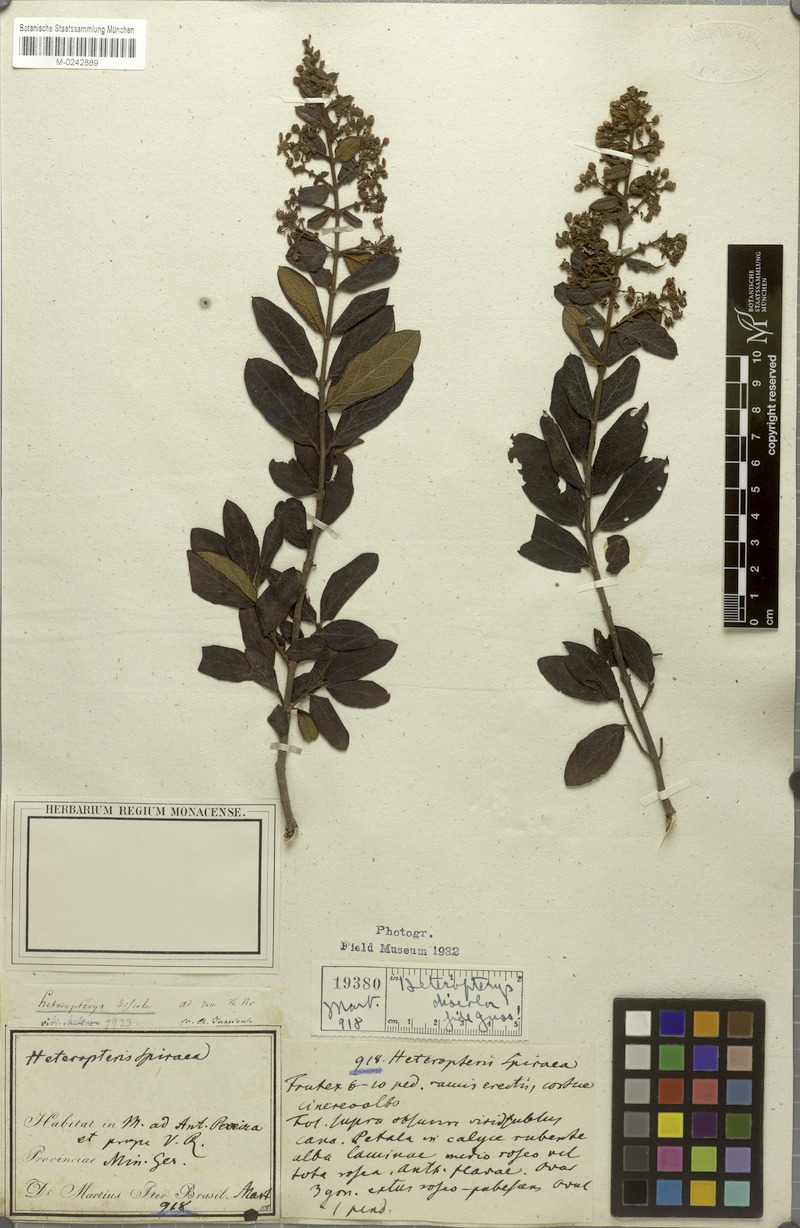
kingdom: Plantae
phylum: Tracheophyta
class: Magnoliopsida
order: Malpighiales
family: Malpighiaceae
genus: Heteropterys
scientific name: Heteropterys campestris
